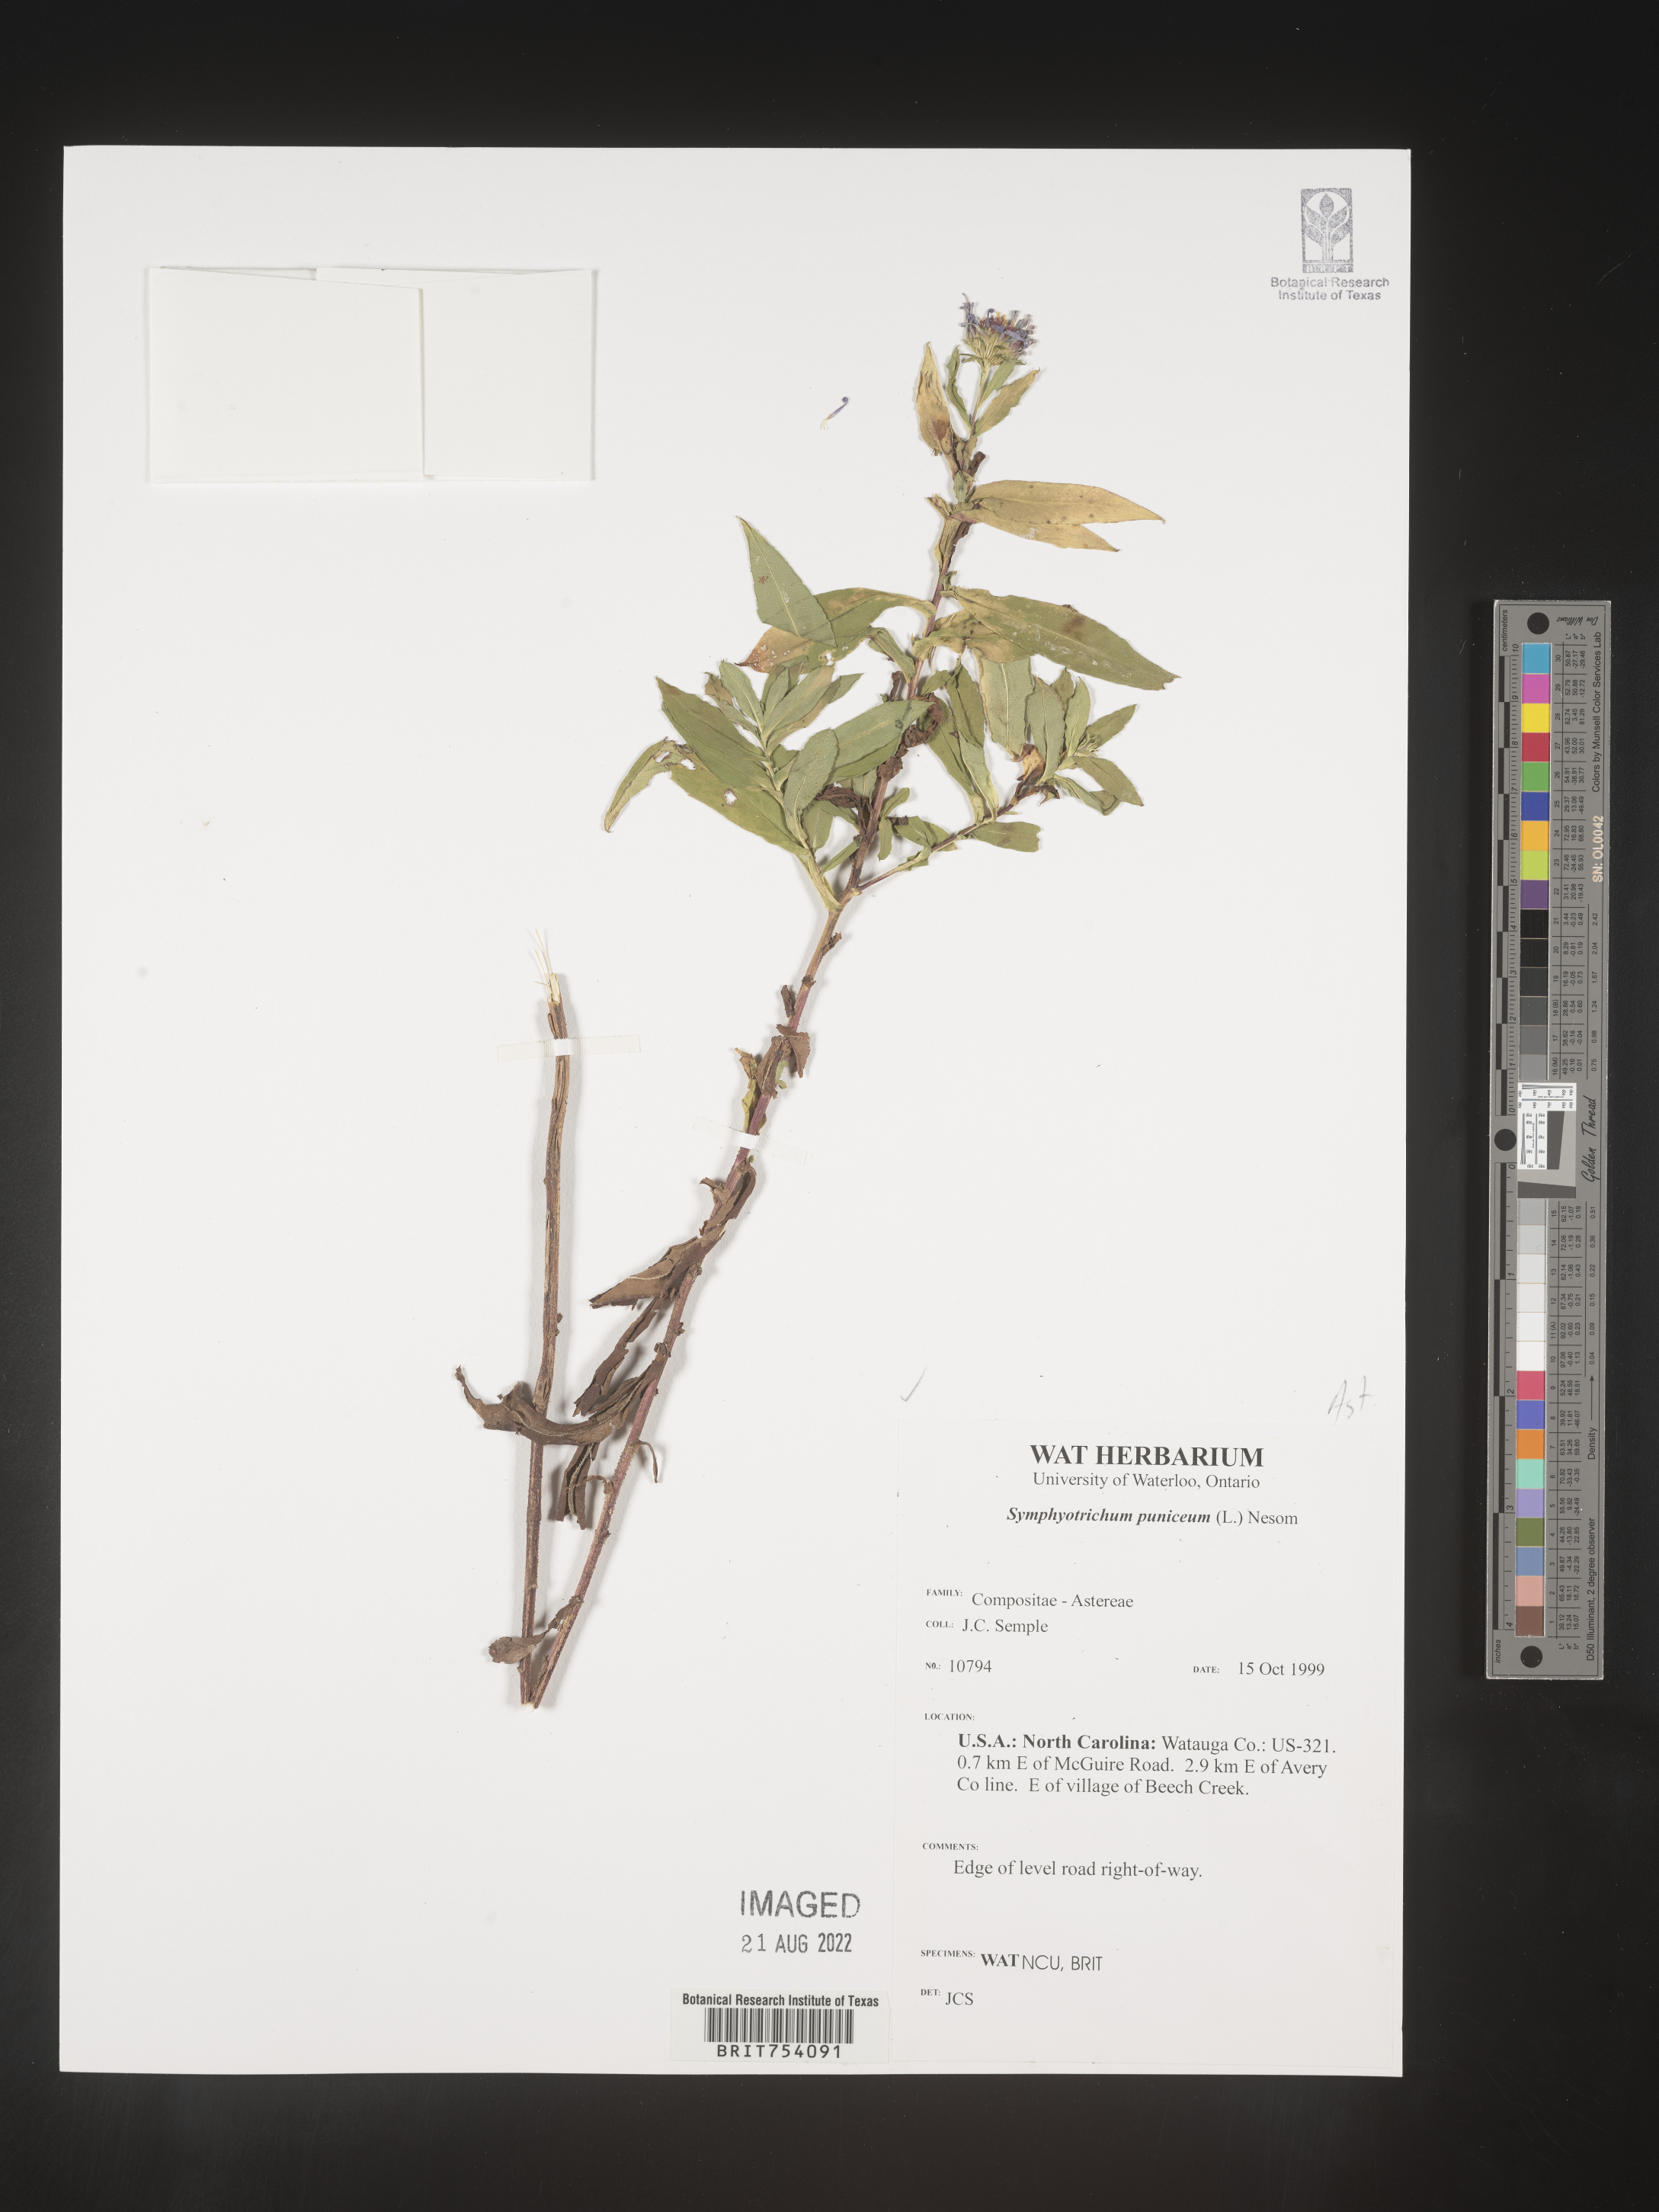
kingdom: Plantae
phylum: Tracheophyta
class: Magnoliopsida
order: Asterales
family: Asteraceae
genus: Symphyotrichum
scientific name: Symphyotrichum puniceum
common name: Bog aster
